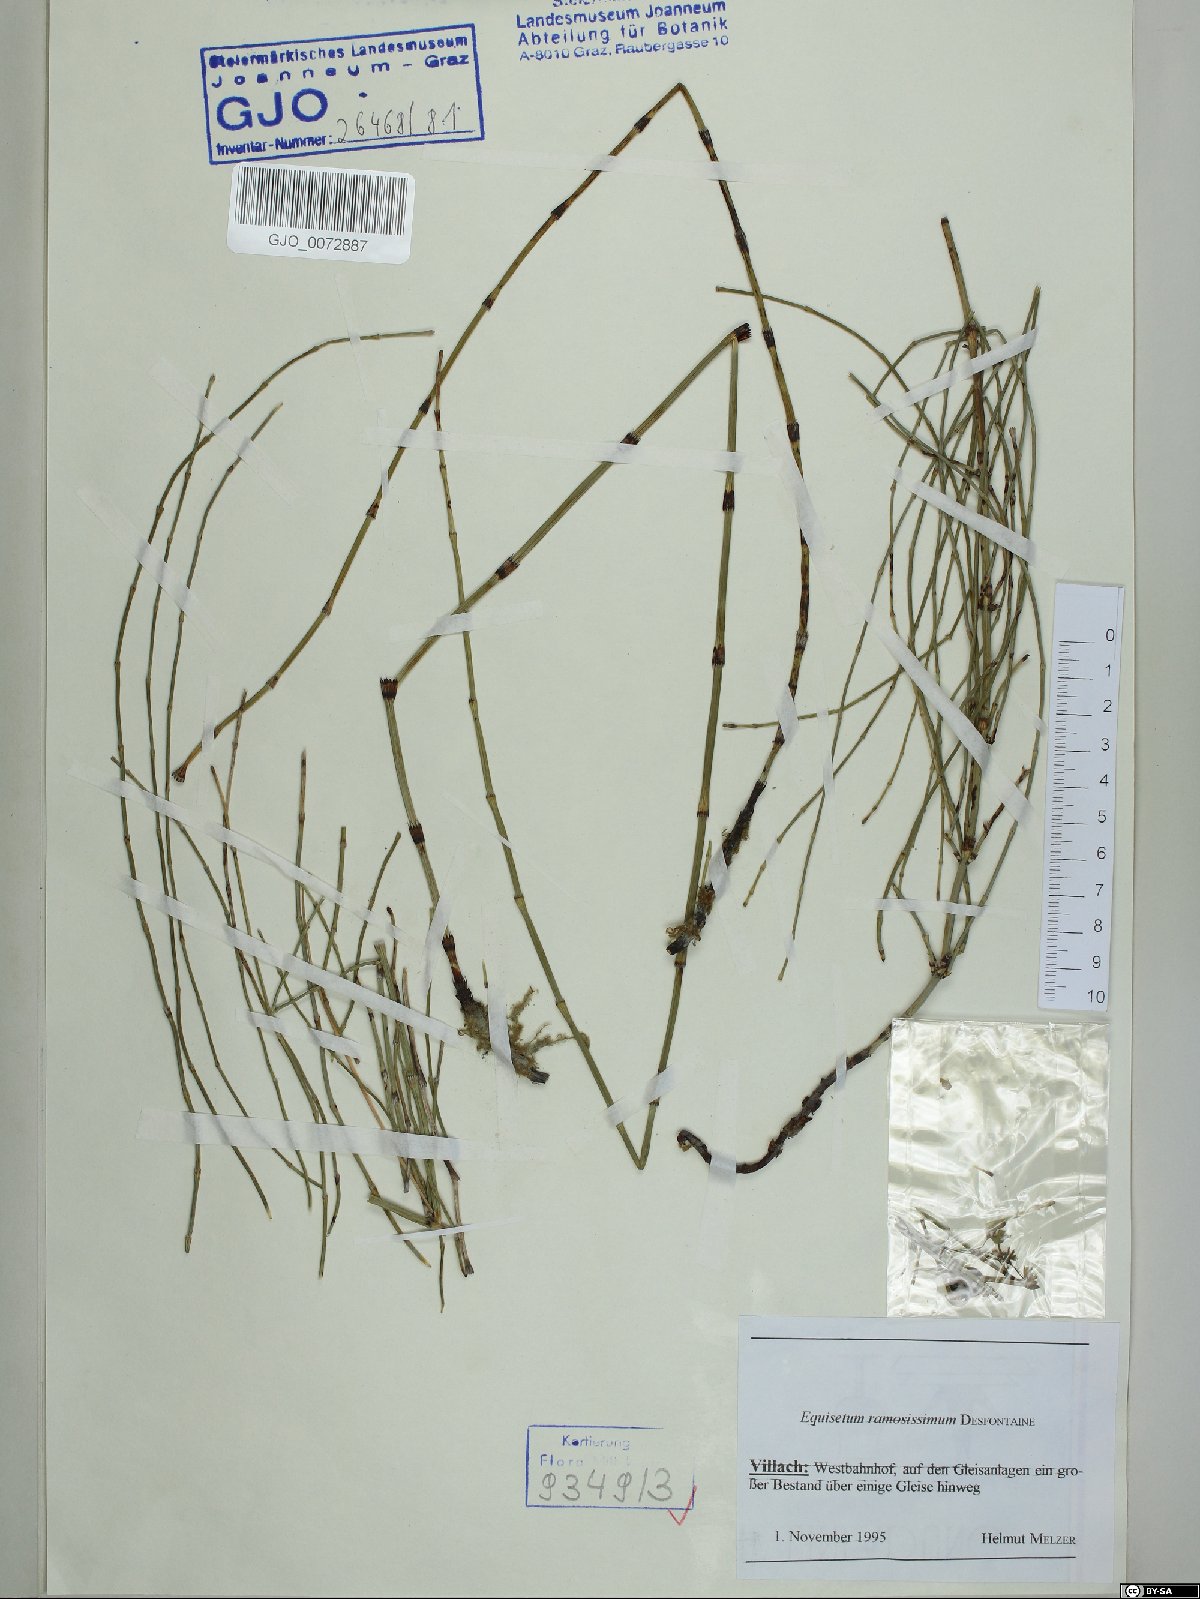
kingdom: Plantae
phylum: Tracheophyta
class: Polypodiopsida
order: Equisetales
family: Equisetaceae
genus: Equisetum
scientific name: Equisetum ramosissimum
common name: Branched horsetail
